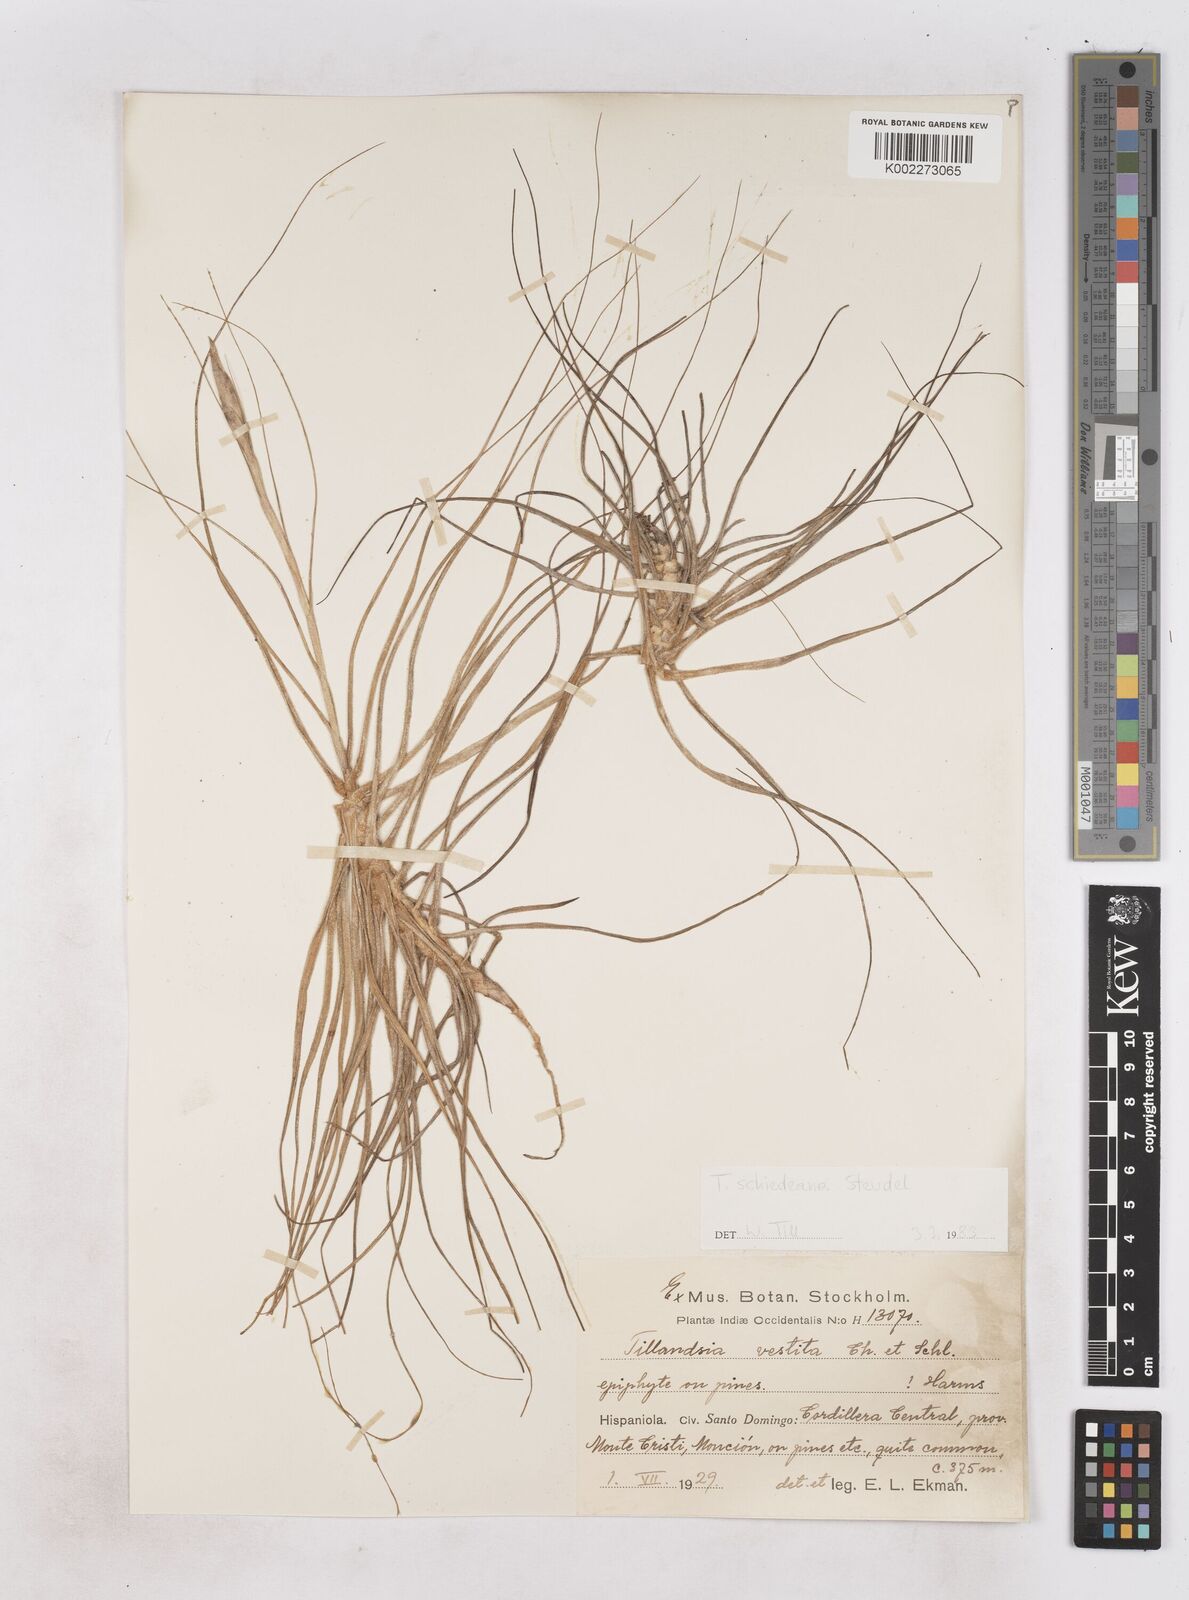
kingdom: Plantae
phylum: Tracheophyta
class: Liliopsida
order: Poales
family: Bromeliaceae
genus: Tillandsia
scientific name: Tillandsia schiedeana
